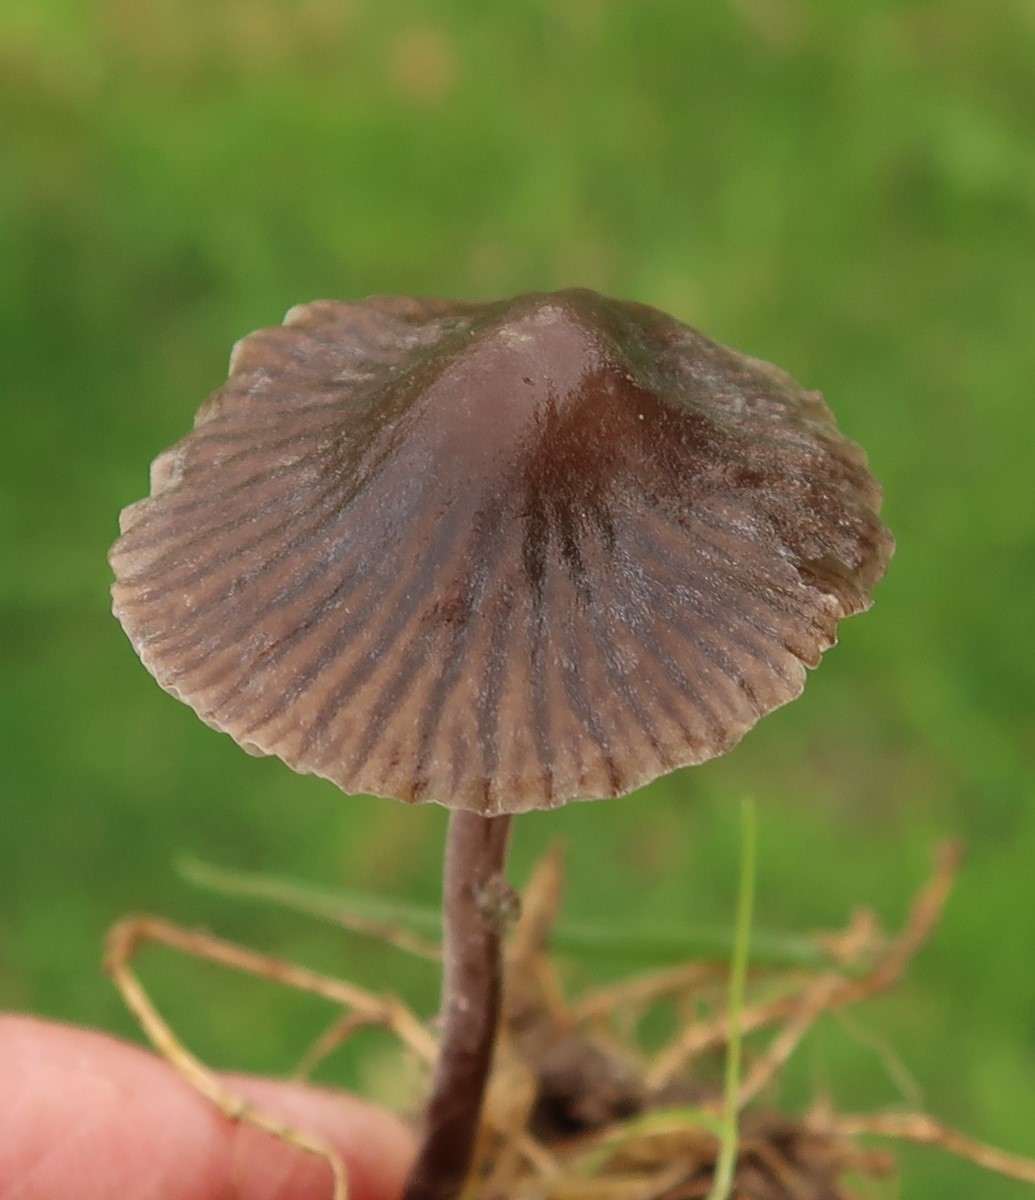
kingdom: Fungi
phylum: Basidiomycota
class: Agaricomycetes
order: Agaricales
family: Mycenaceae
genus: Mycena
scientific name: Mycena leptocephala
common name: klor-huesvamp
